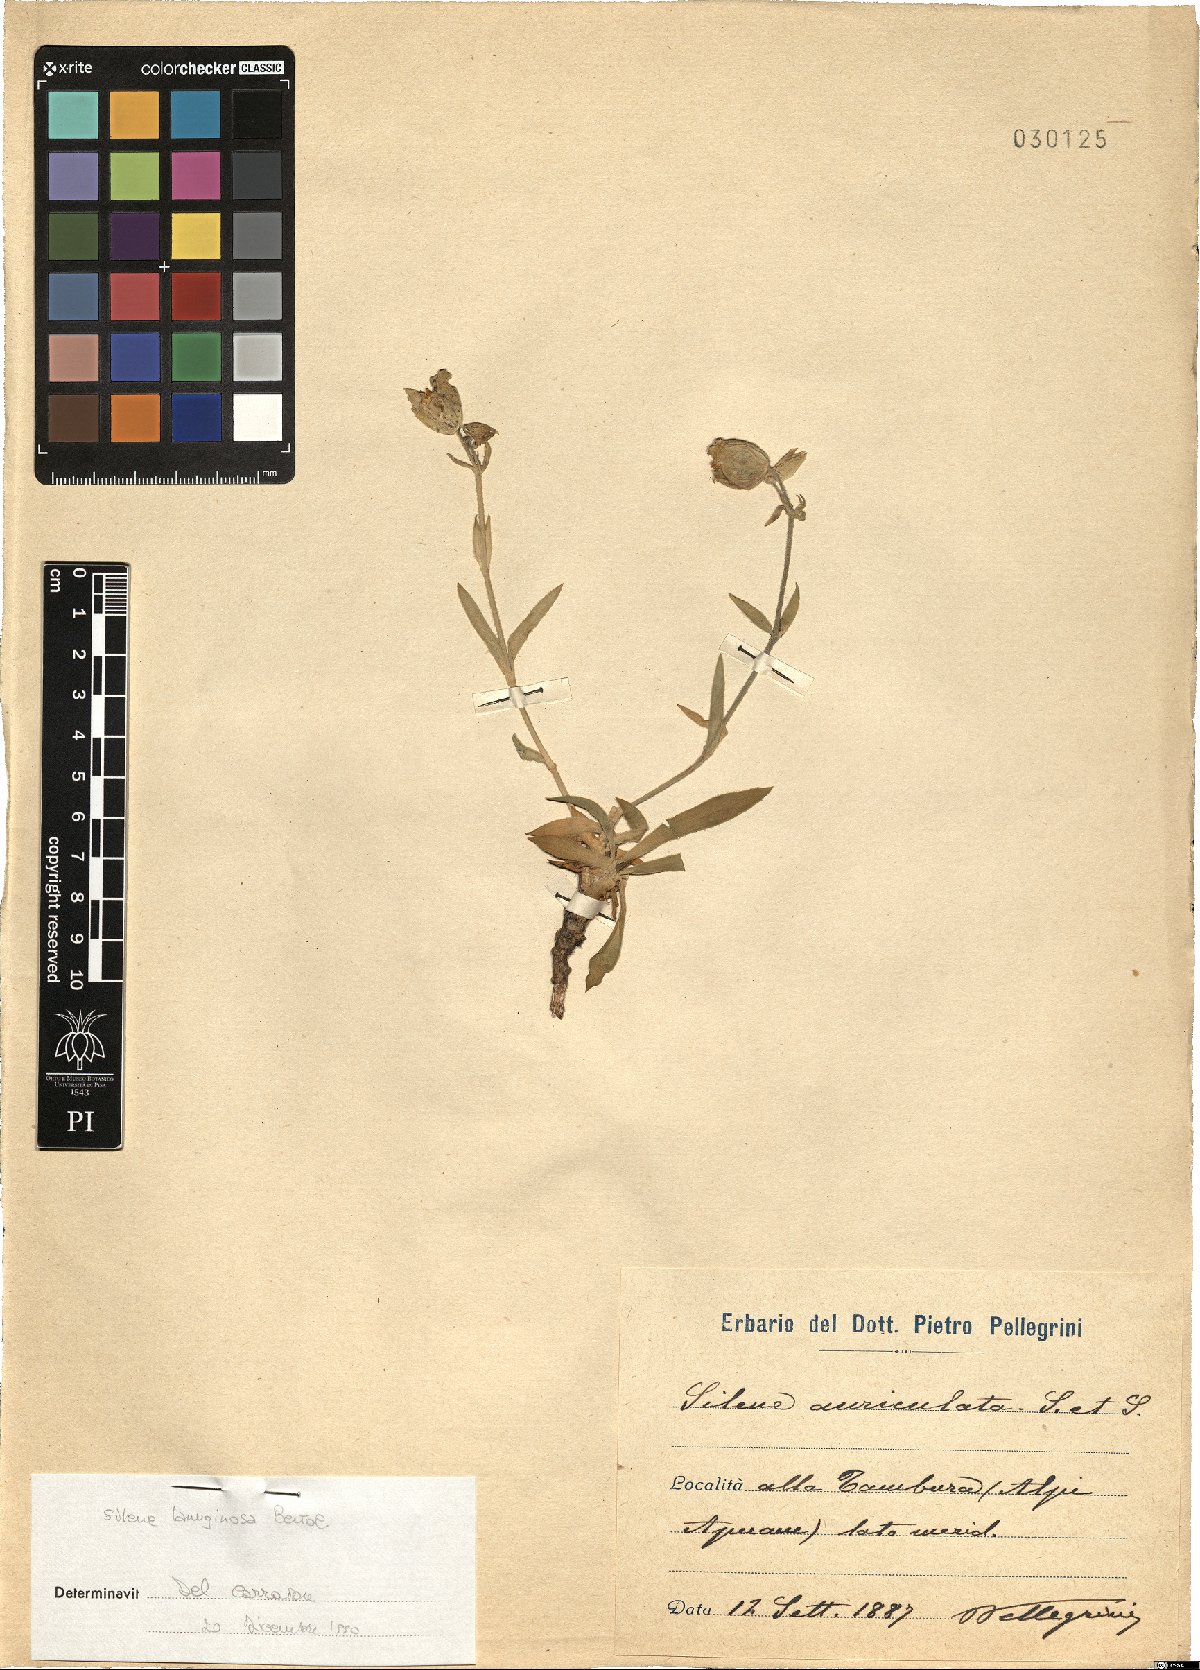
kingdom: Plantae
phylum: Tracheophyta
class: Magnoliopsida
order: Caryophyllales
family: Caryophyllaceae
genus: Silene
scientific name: Silene auriculata
